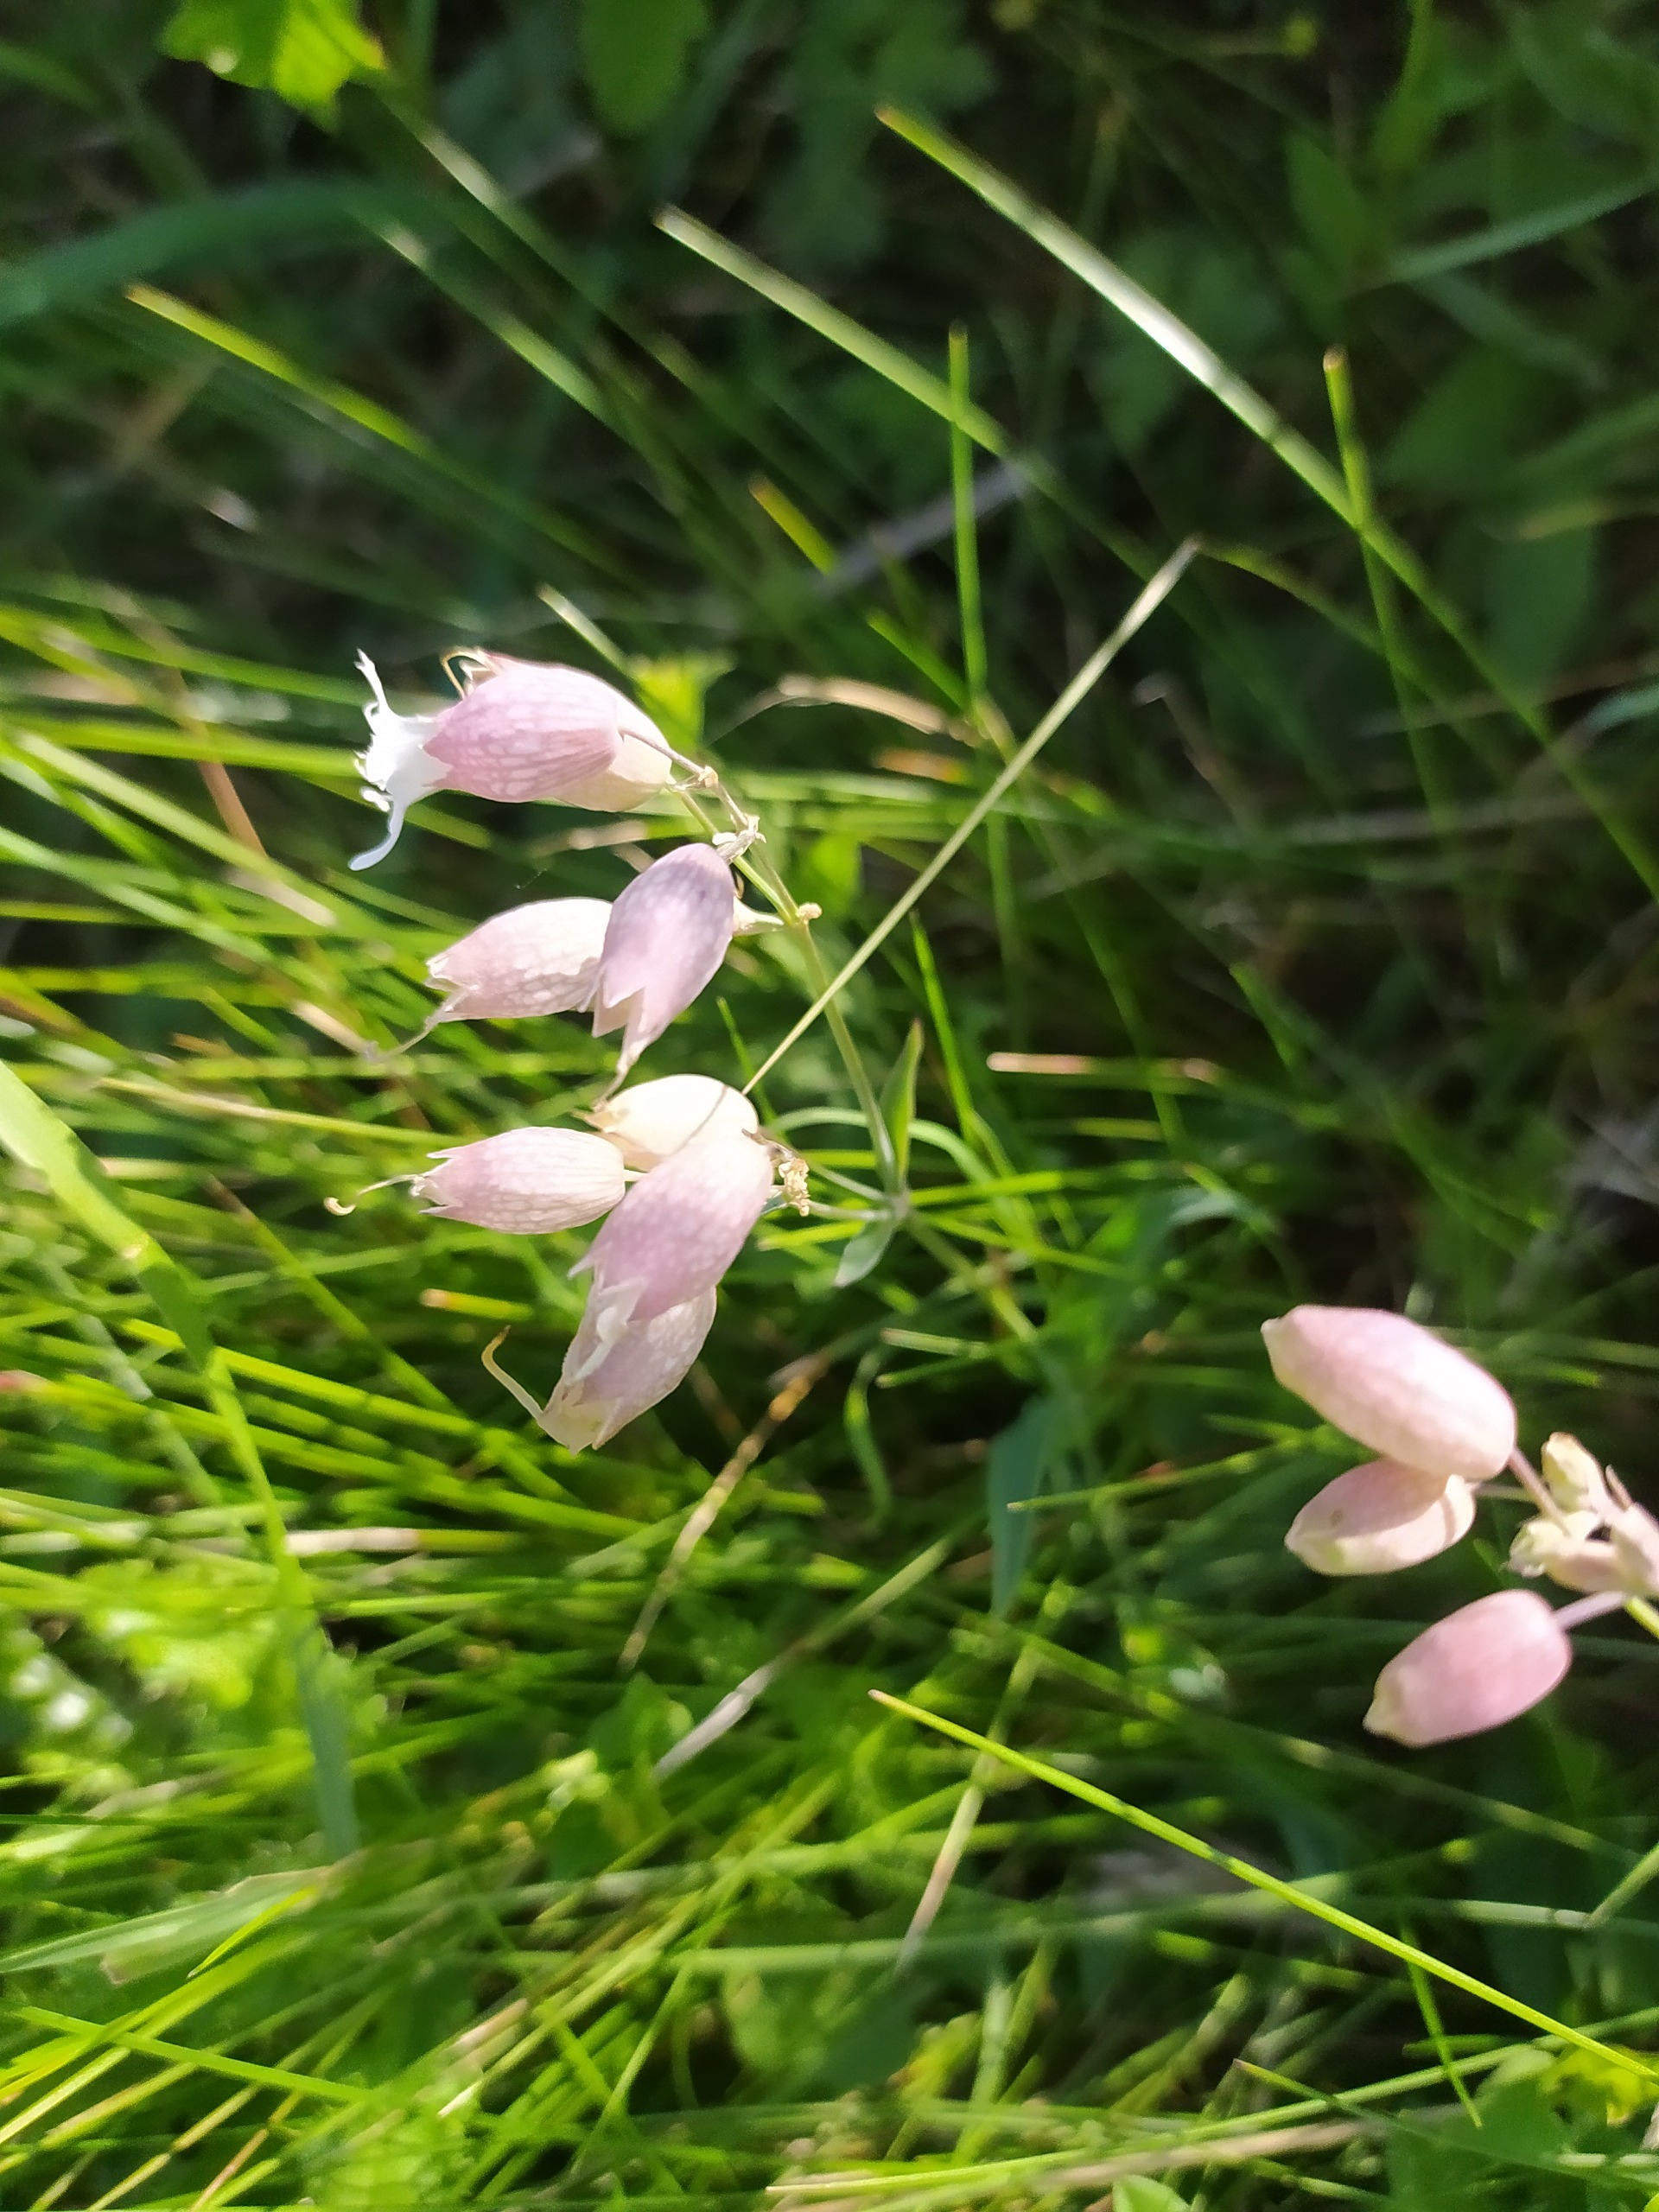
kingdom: Plantae
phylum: Tracheophyta
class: Magnoliopsida
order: Caryophyllales
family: Caryophyllaceae
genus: Silene
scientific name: Silene vulgaris
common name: Blæresmælde
